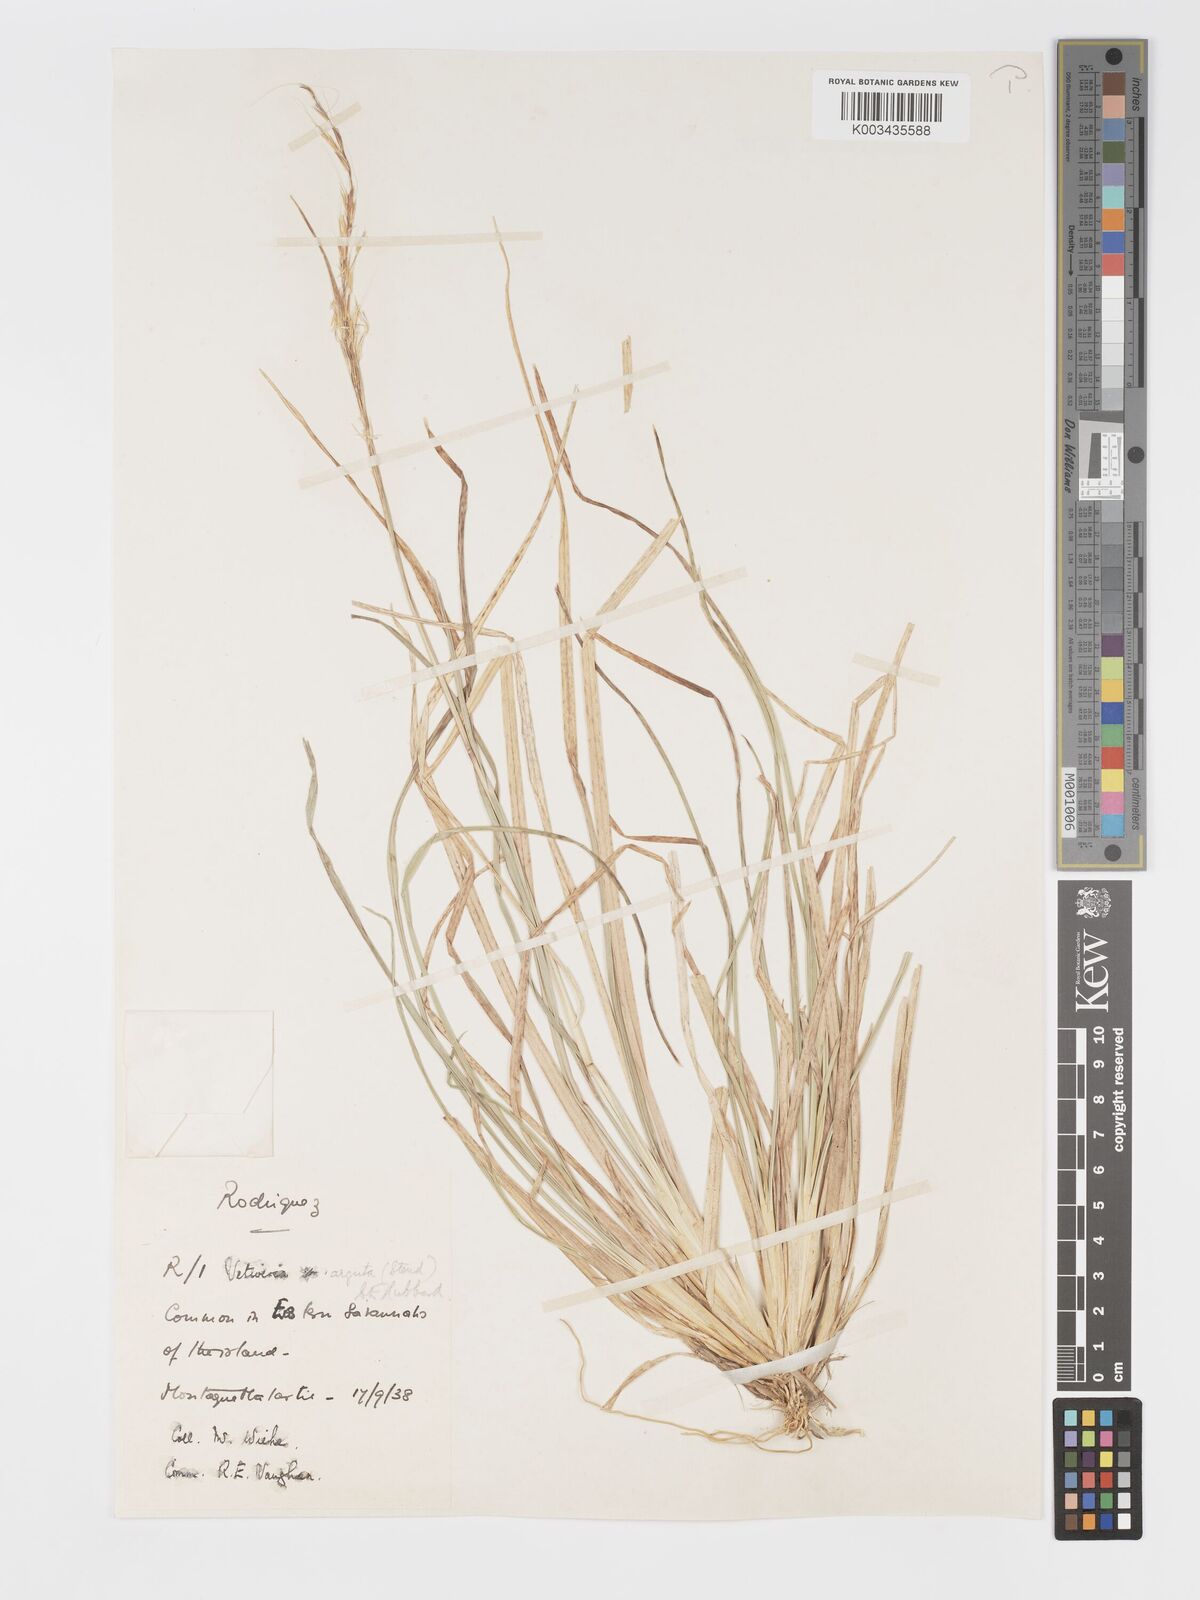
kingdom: Plantae
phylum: Tracheophyta
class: Liliopsida
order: Poales
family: Poaceae
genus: Chrysopogon
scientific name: Chrysopogon argutus
